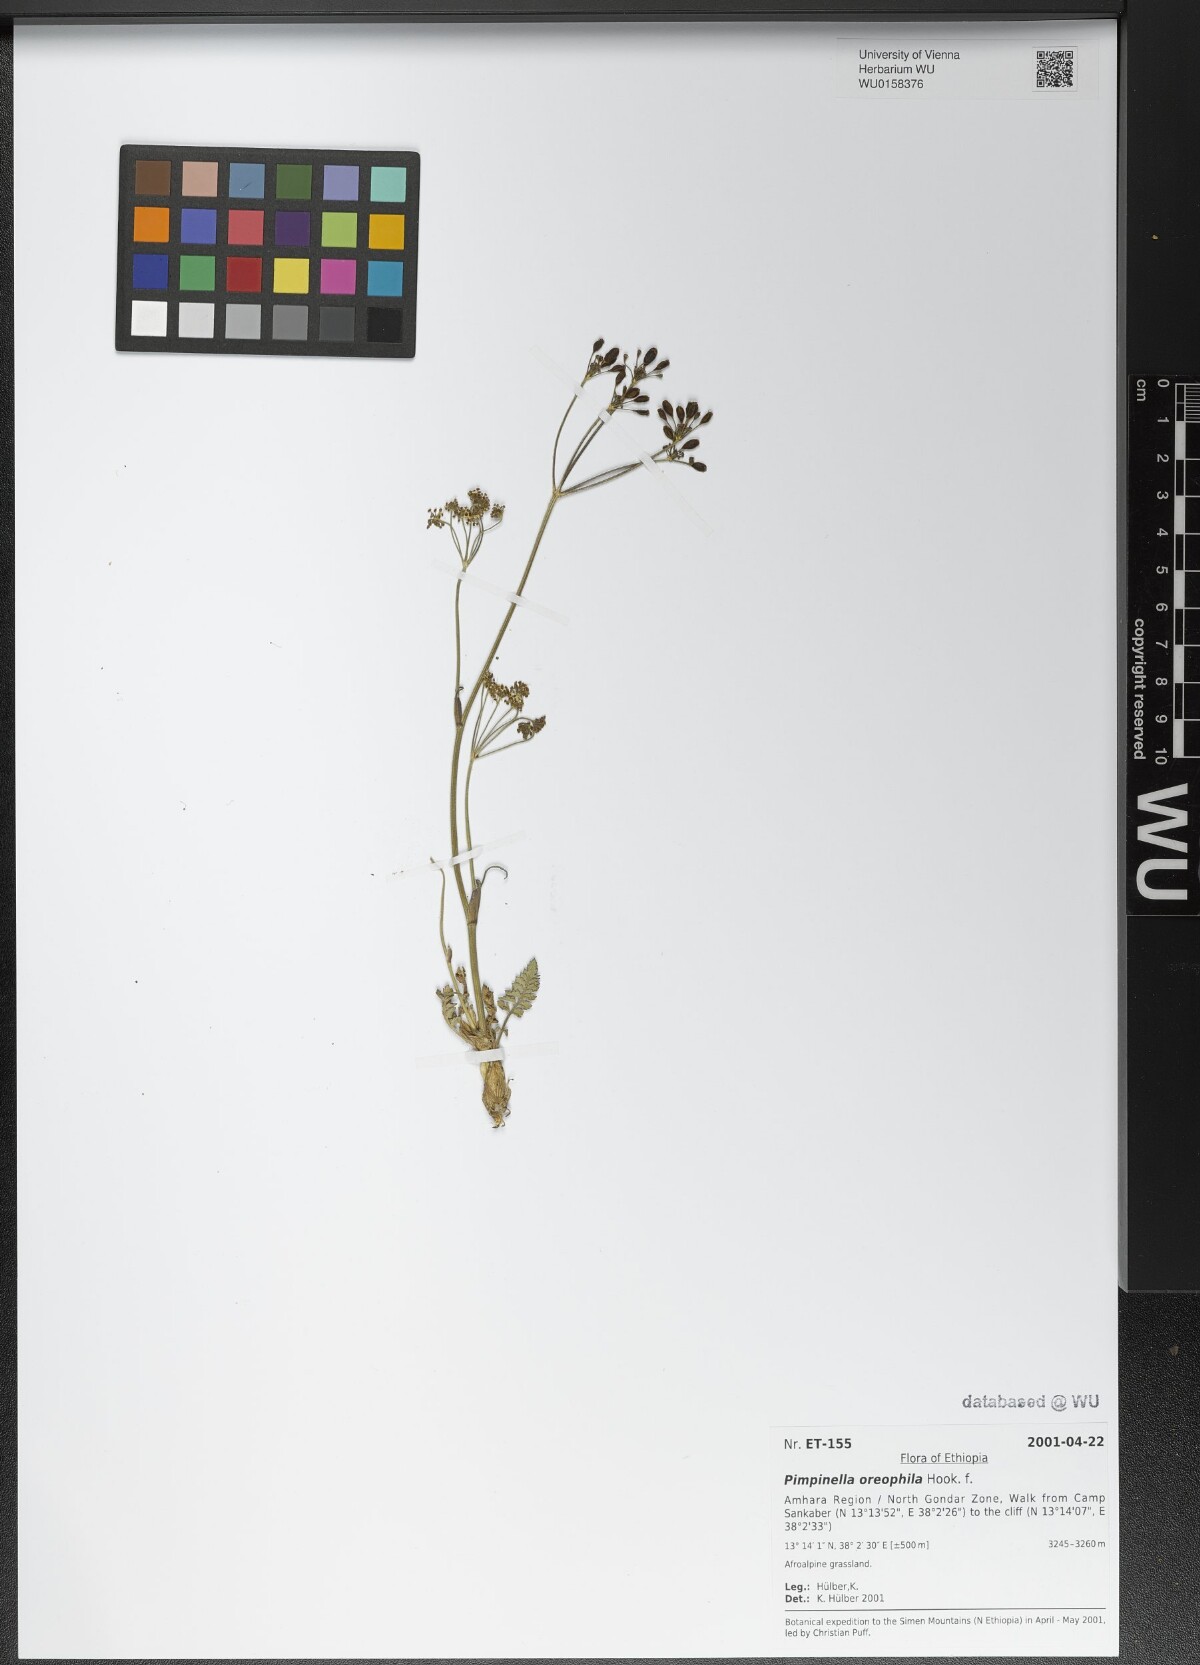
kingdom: Plantae
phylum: Tracheophyta
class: Magnoliopsida
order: Apiales
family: Apiaceae
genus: Pimpinella
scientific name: Pimpinella oreophila
